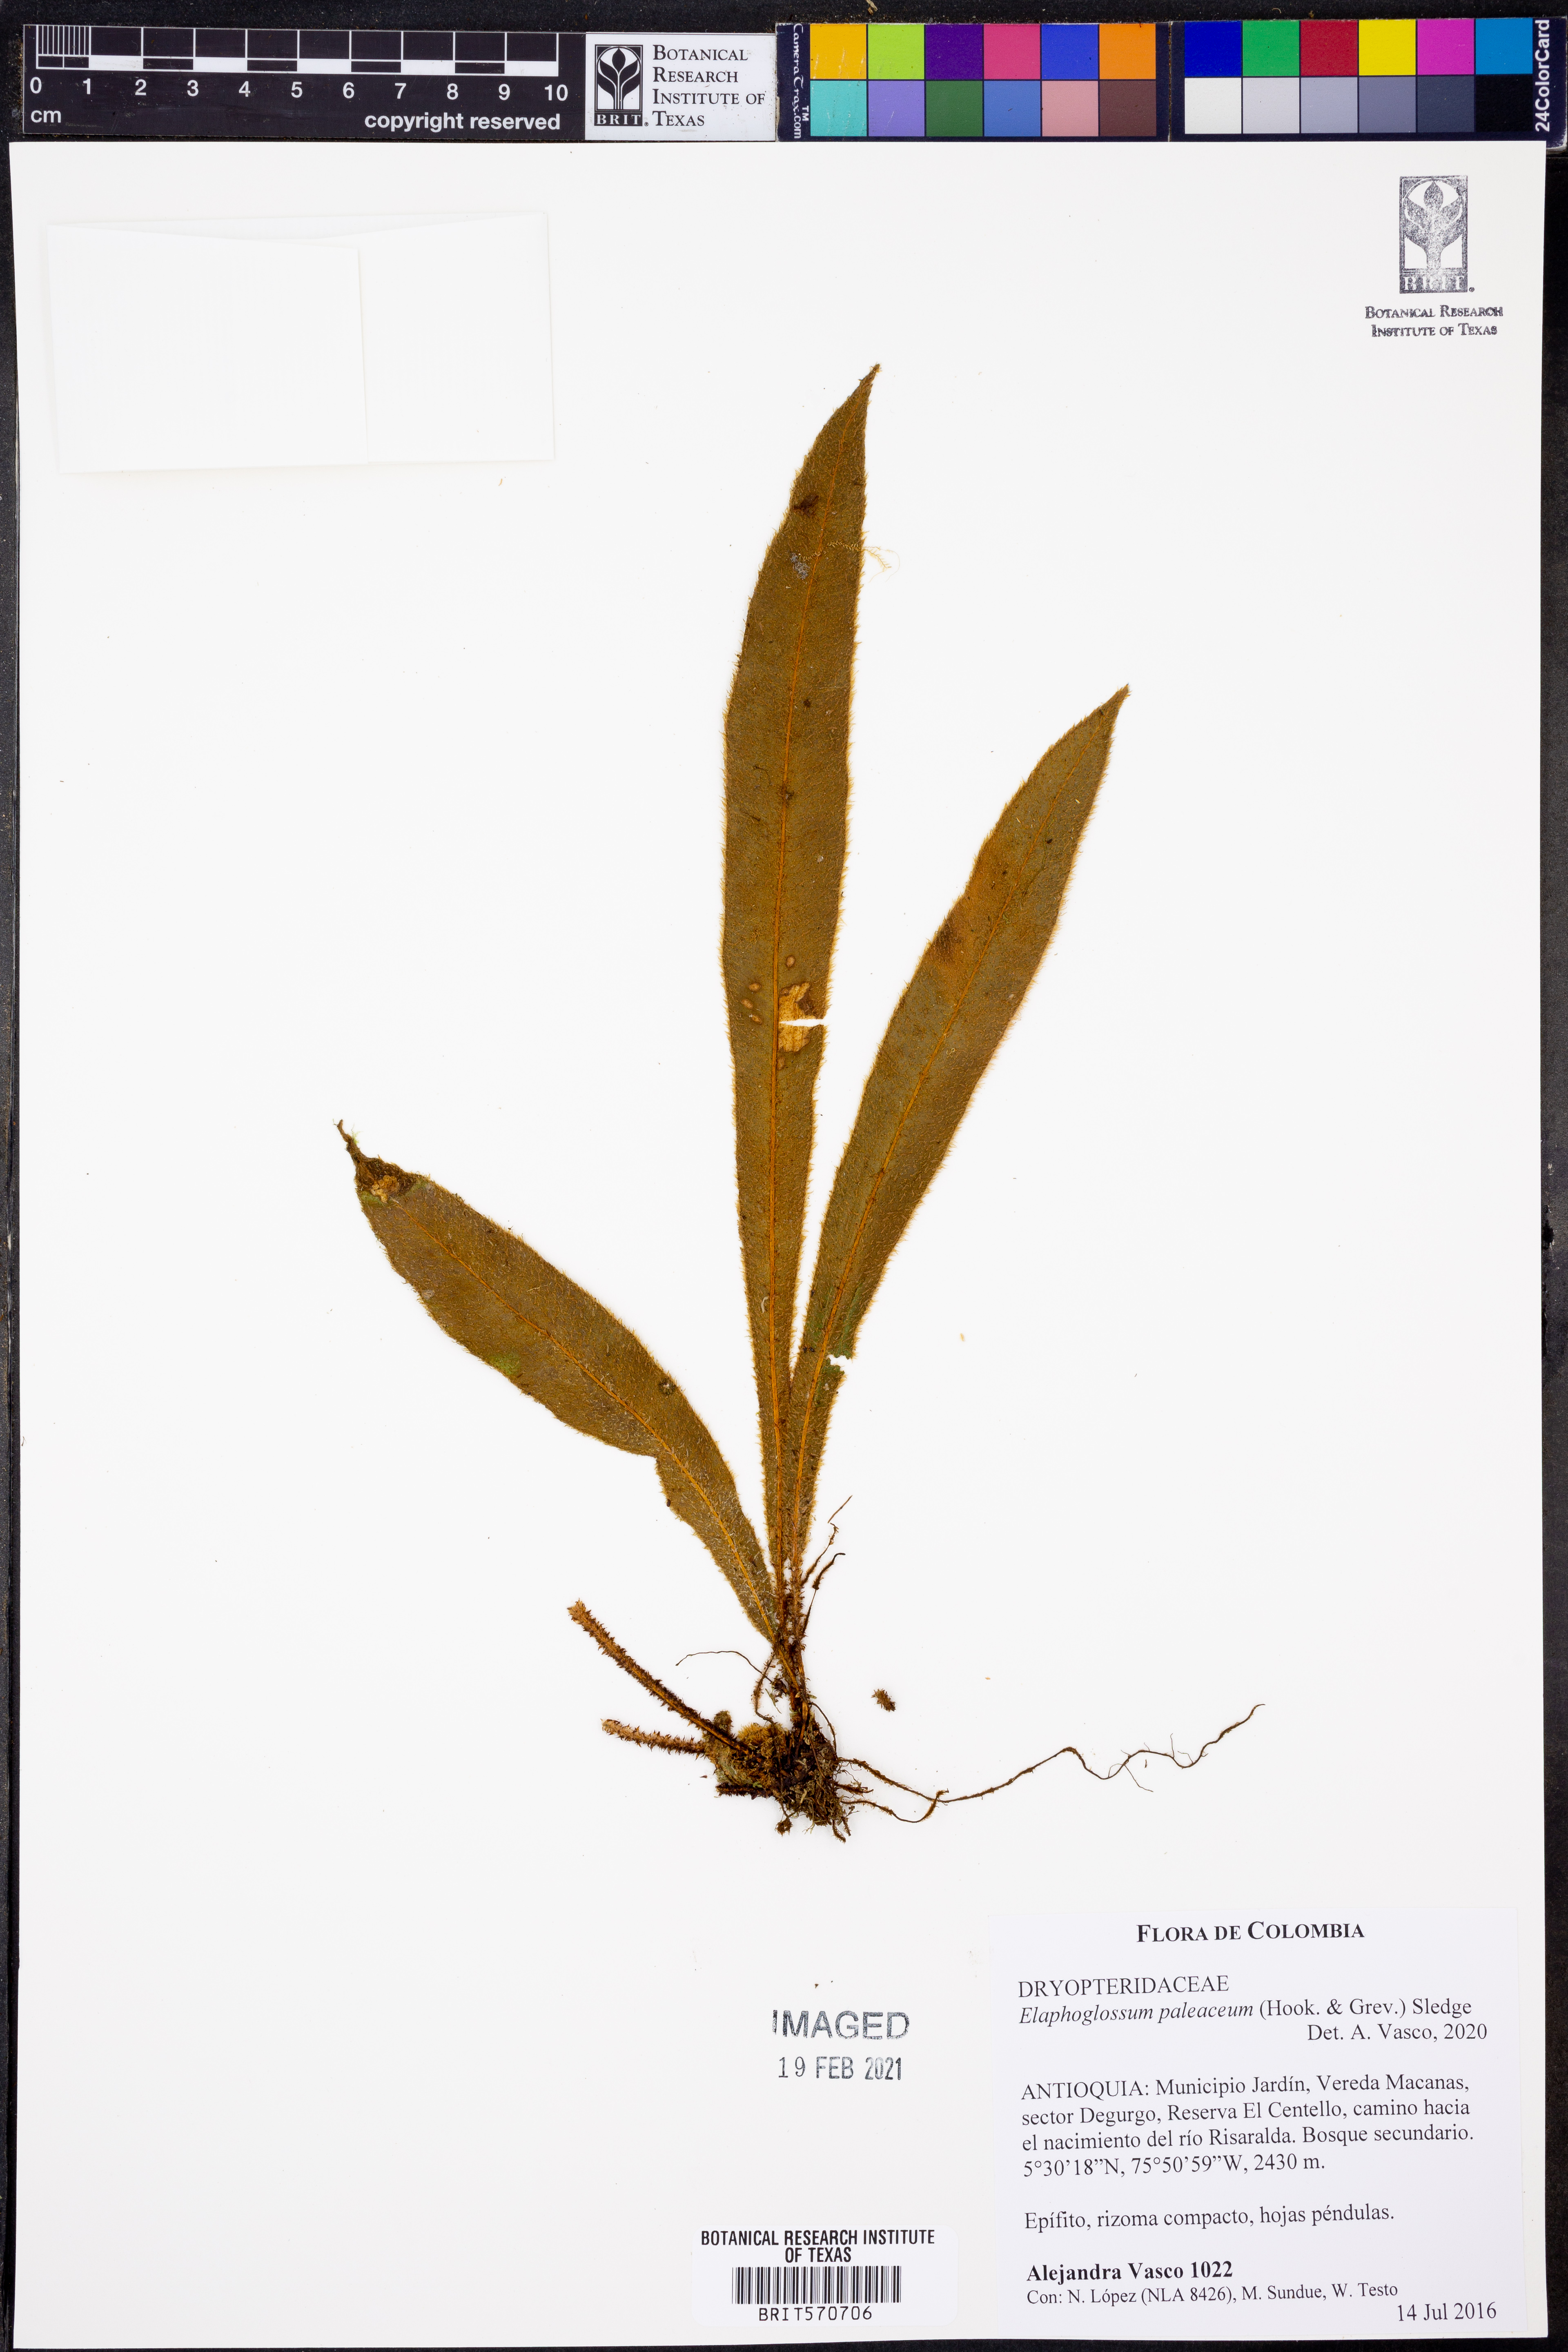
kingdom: Plantae
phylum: Tracheophyta
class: Polypodiopsida
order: Polypodiales
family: Dryopteridaceae
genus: Elaphoglossum
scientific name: Elaphoglossum paleaceum
